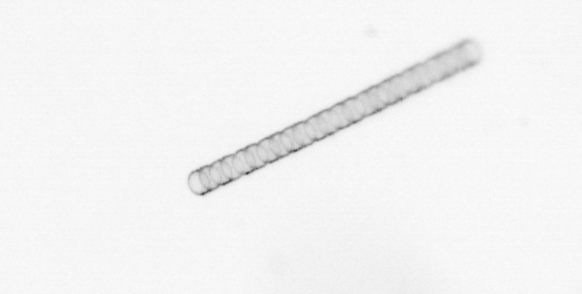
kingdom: Chromista
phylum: Ochrophyta
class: Bacillariophyceae
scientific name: Bacillariophyceae
